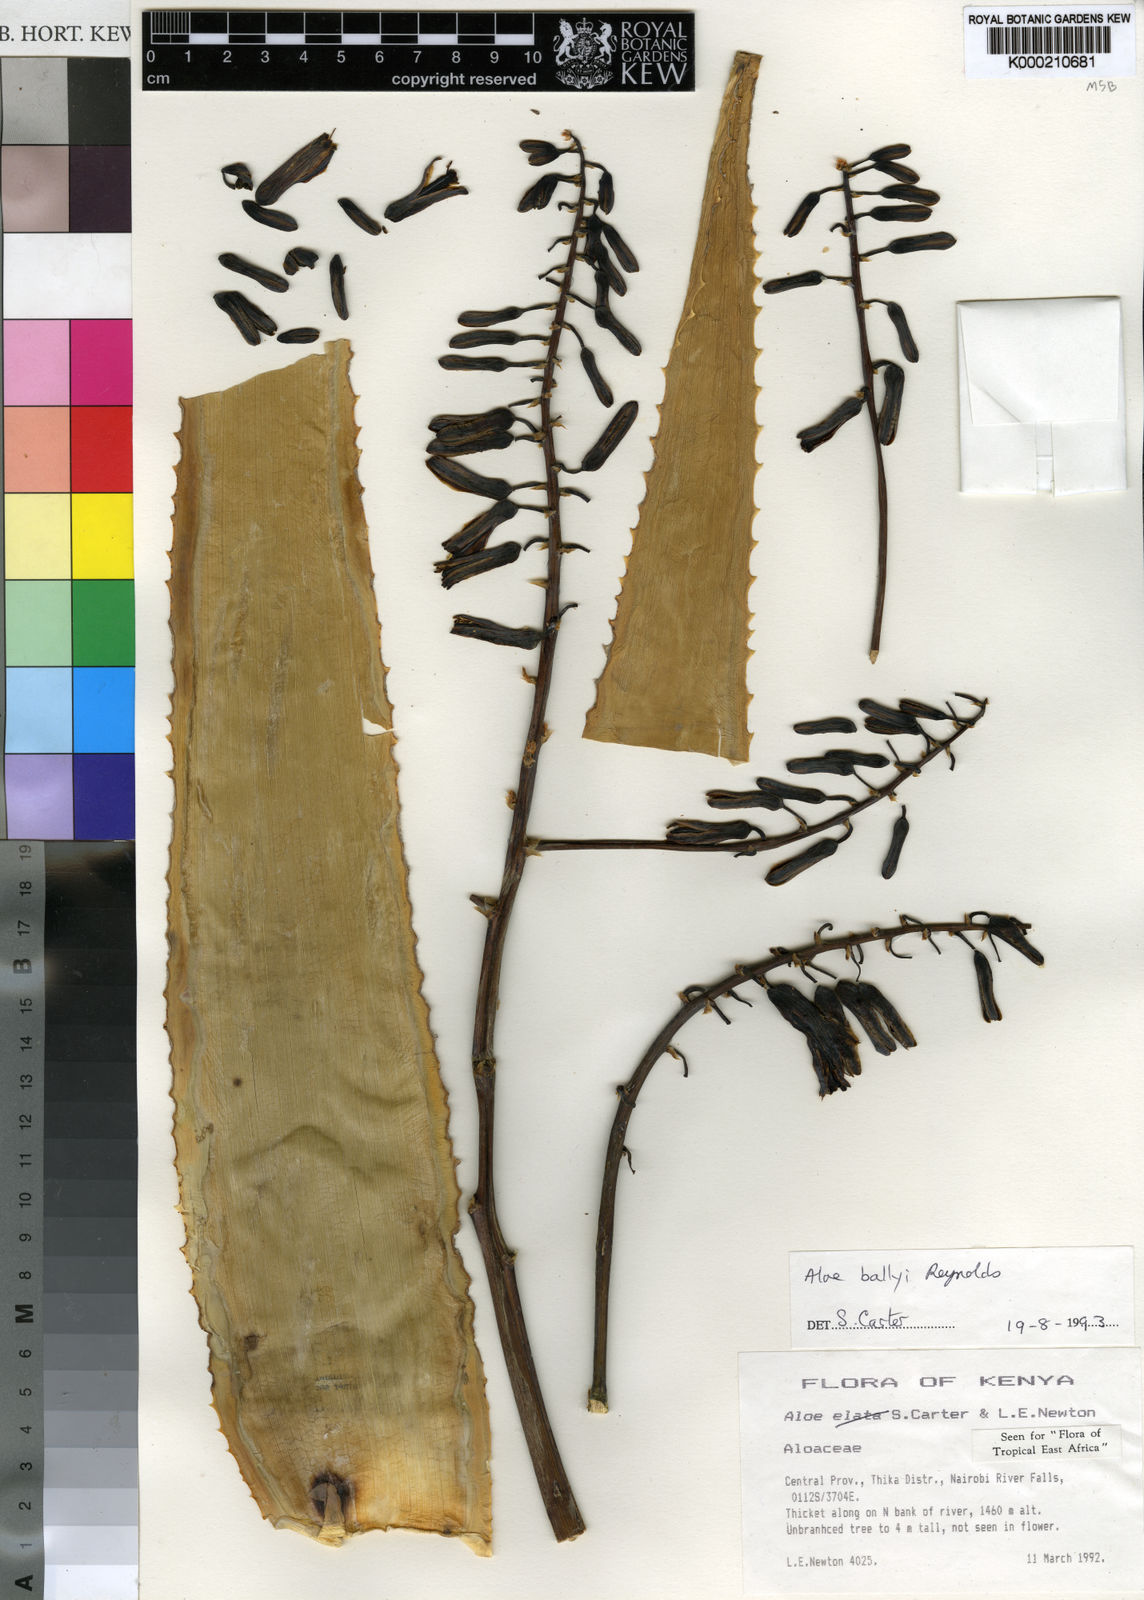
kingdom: Plantae
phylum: Tracheophyta
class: Liliopsida
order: Asparagales
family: Asphodelaceae
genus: Aloe
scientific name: Aloe ballyi
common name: Rat aloe
